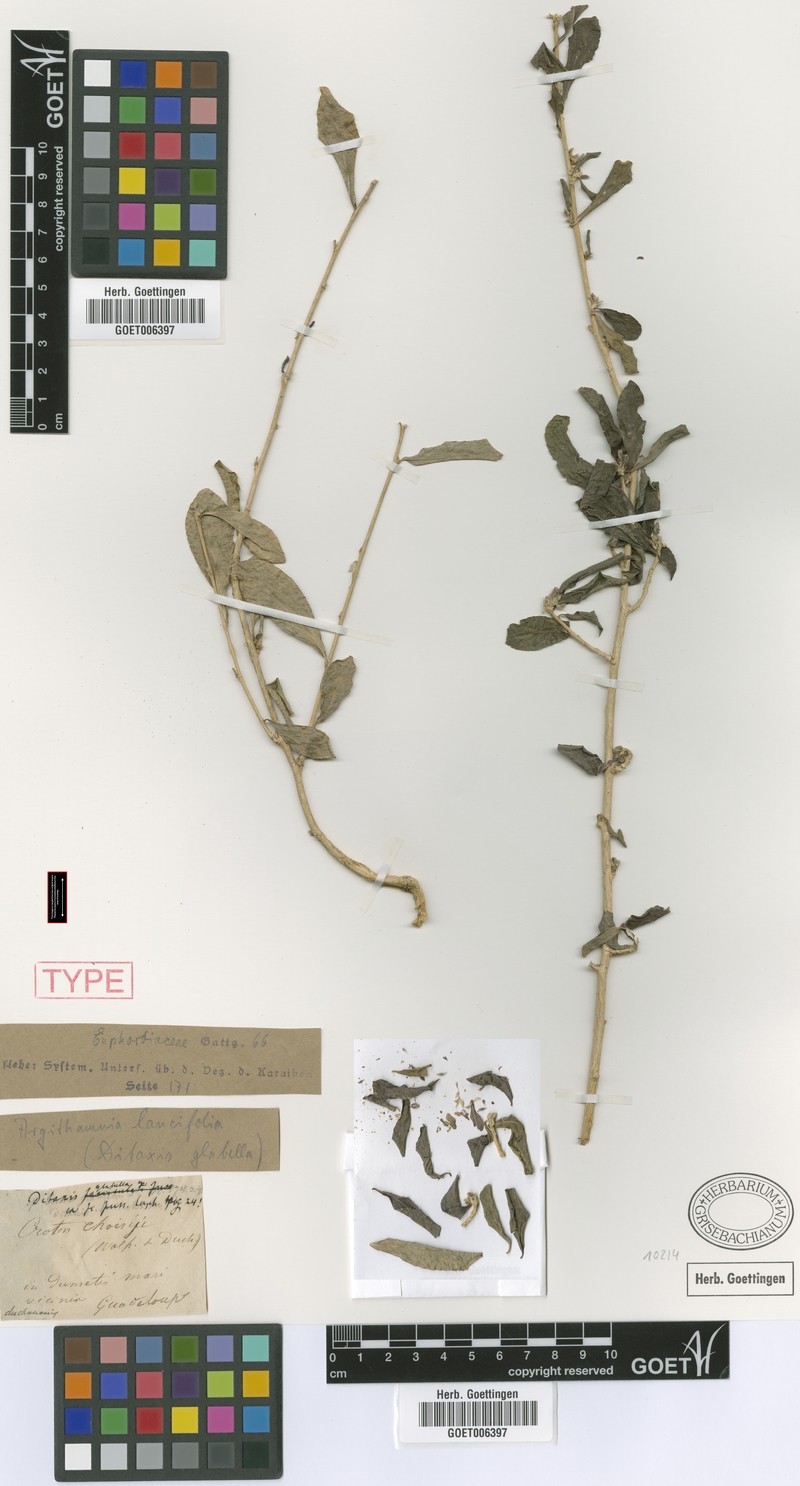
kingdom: Plantae
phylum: Tracheophyta
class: Magnoliopsida
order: Malpighiales
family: Euphorbiaceae
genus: Ditaxis
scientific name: Ditaxis polygama
